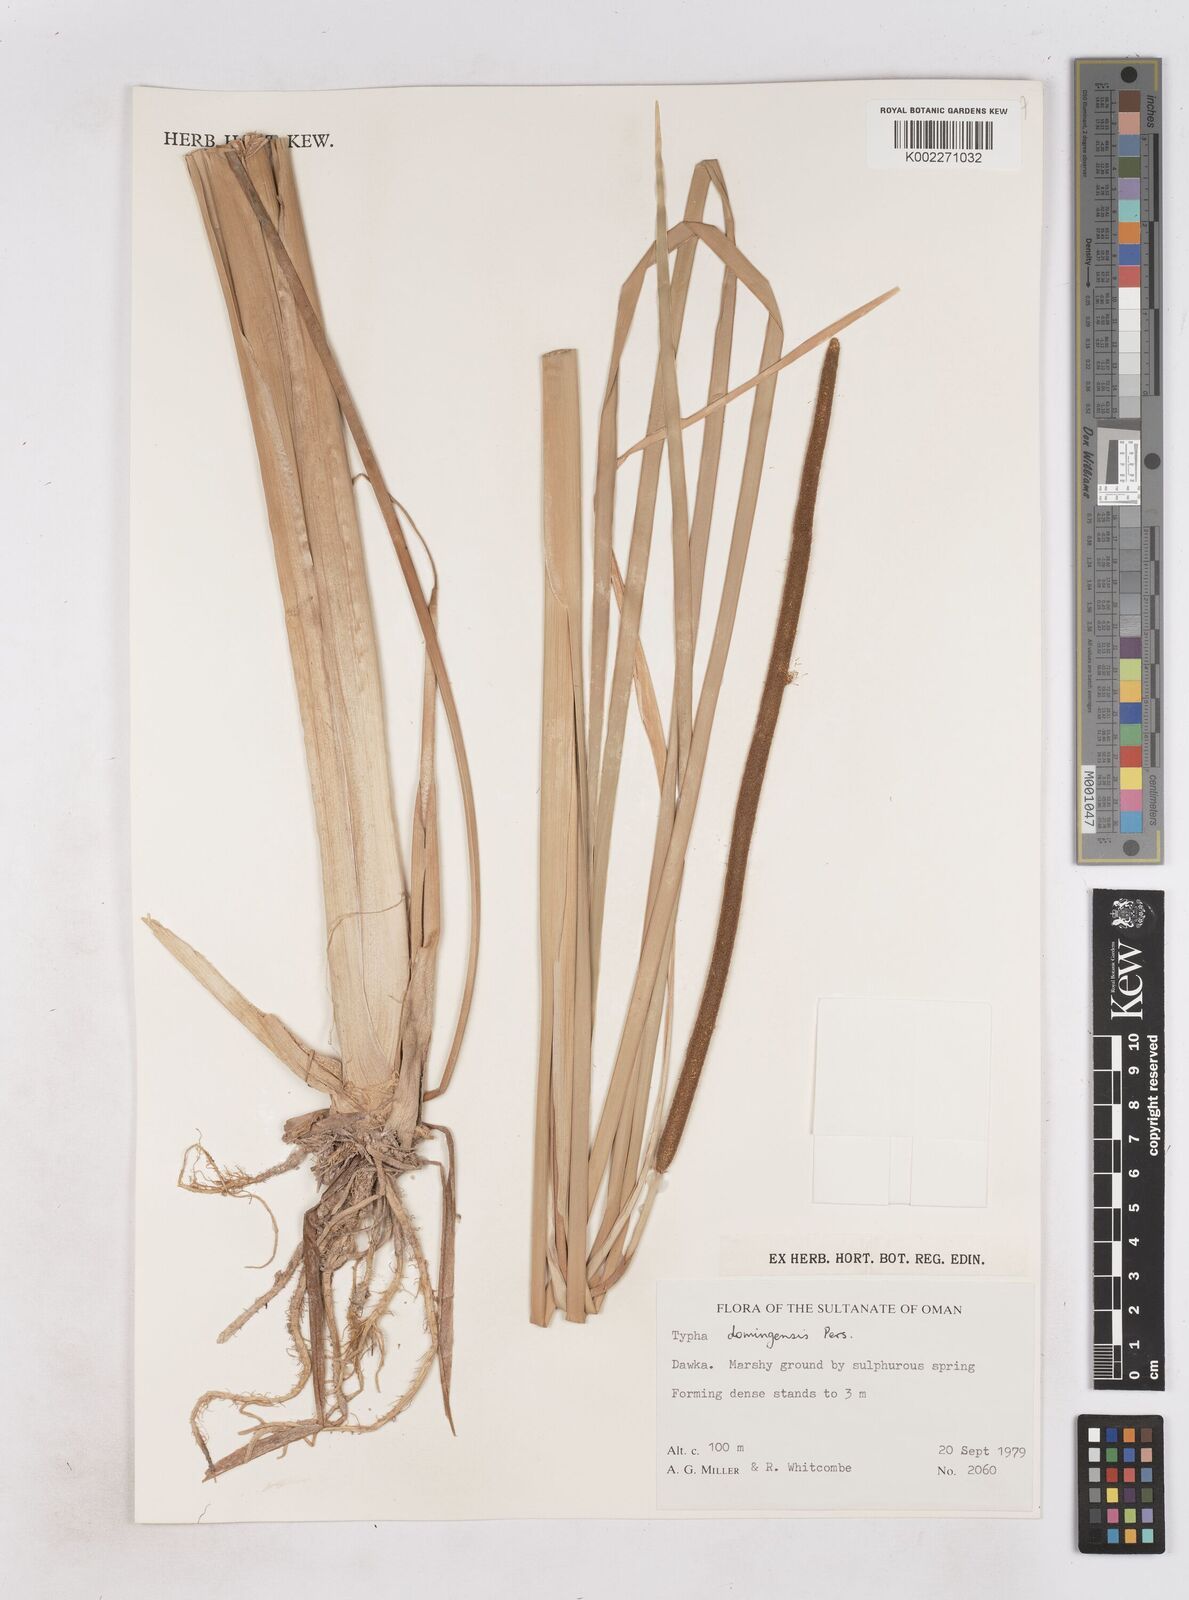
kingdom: Plantae
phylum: Tracheophyta
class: Liliopsida
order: Poales
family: Typhaceae
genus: Typha
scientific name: Typha domingensis
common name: Southern cattail
